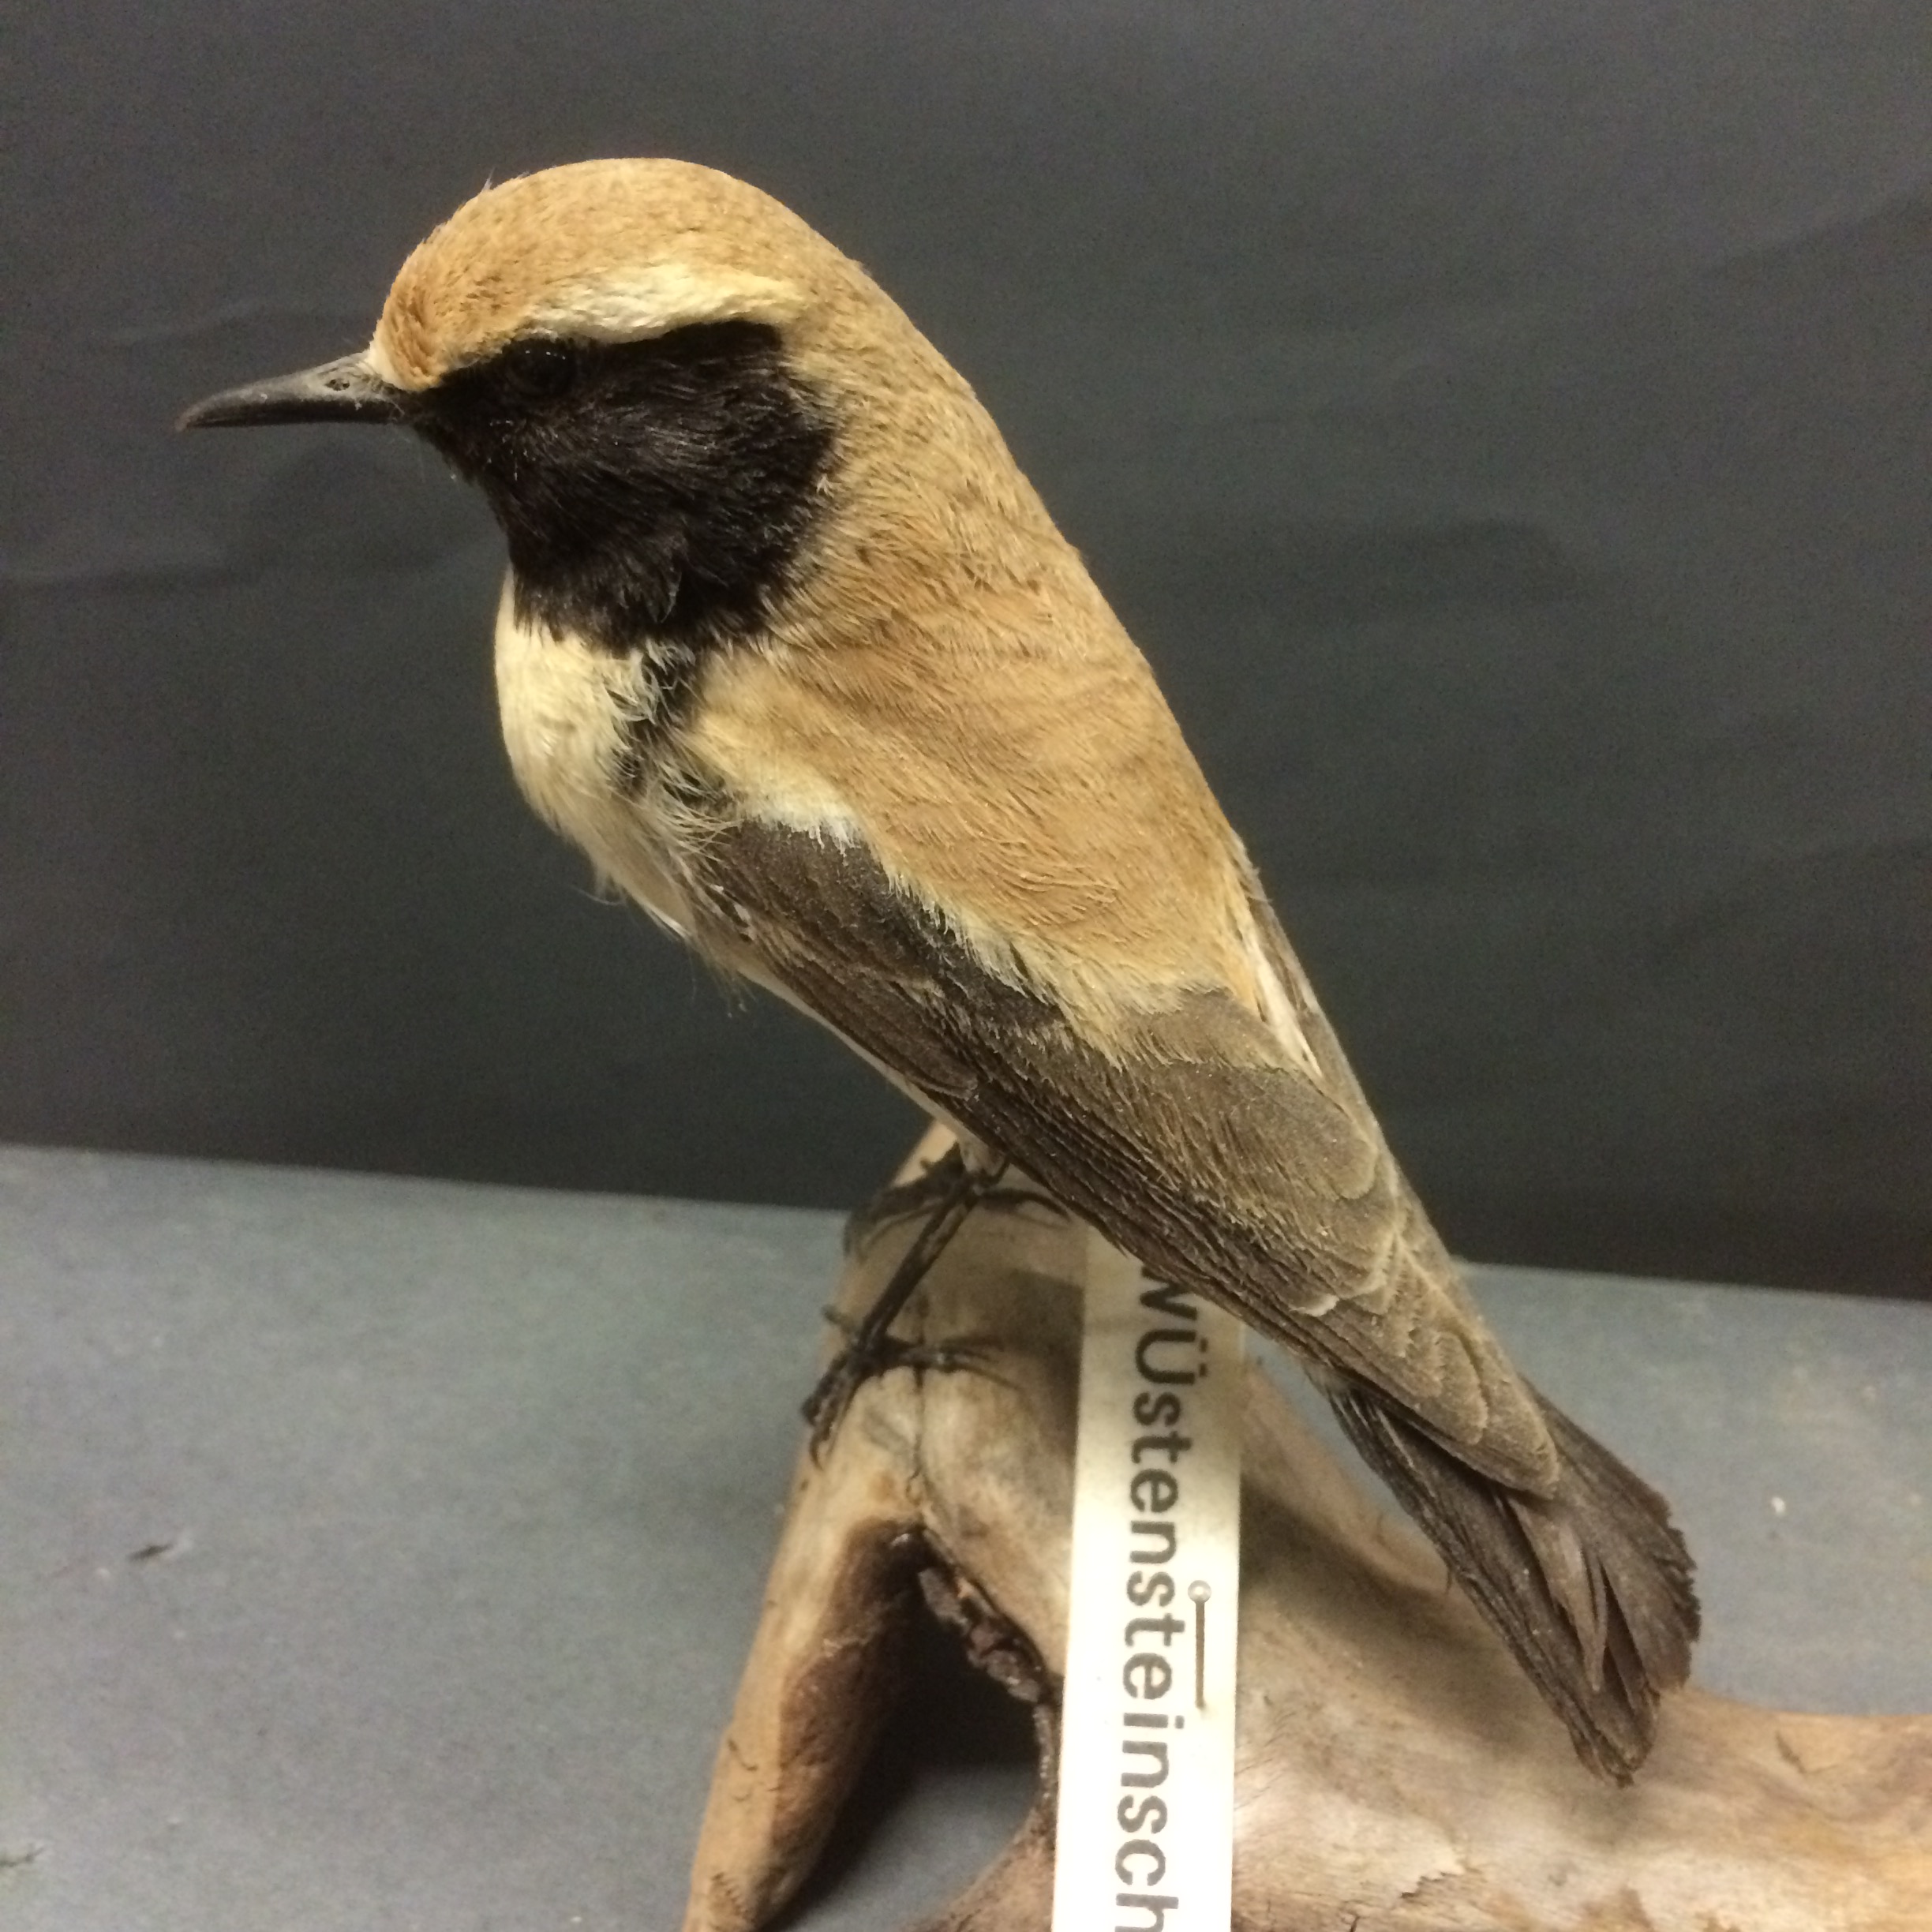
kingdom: Animalia
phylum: Chordata
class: Aves
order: Passeriformes
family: Muscicapidae
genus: Oenanthe
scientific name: Oenanthe deserti
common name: Desert wheatear
